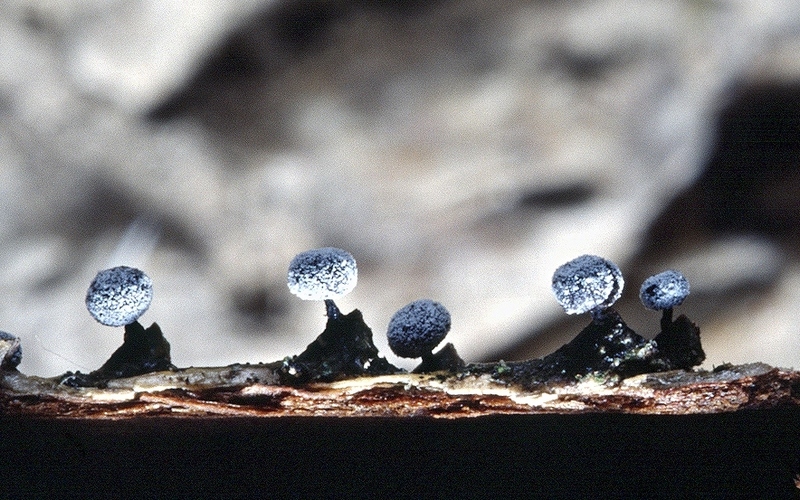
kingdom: Protozoa
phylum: Mycetozoa
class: Myxomycetes
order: Physarales
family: Didymiaceae
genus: Didymium
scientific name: Didymium melanospermum
